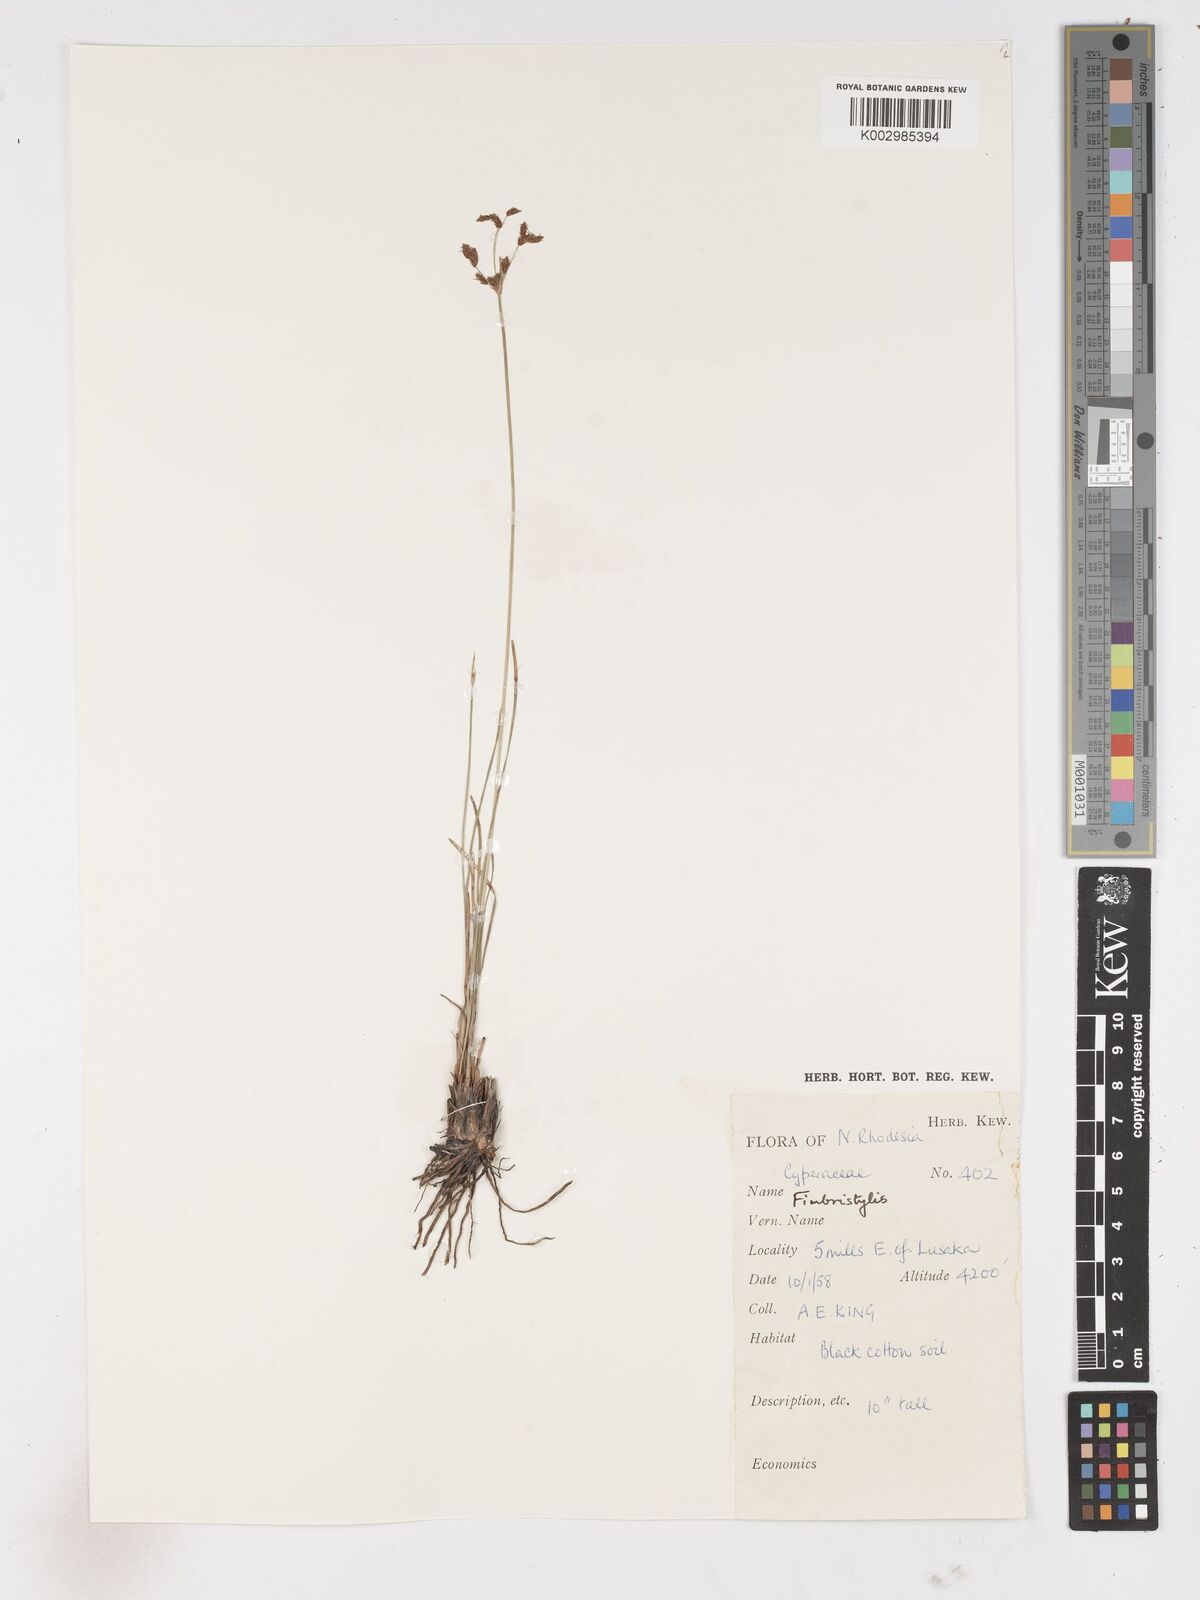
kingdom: Plantae
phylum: Tracheophyta
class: Liliopsida
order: Poales
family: Cyperaceae
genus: Fimbristylis
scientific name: Fimbristylis
